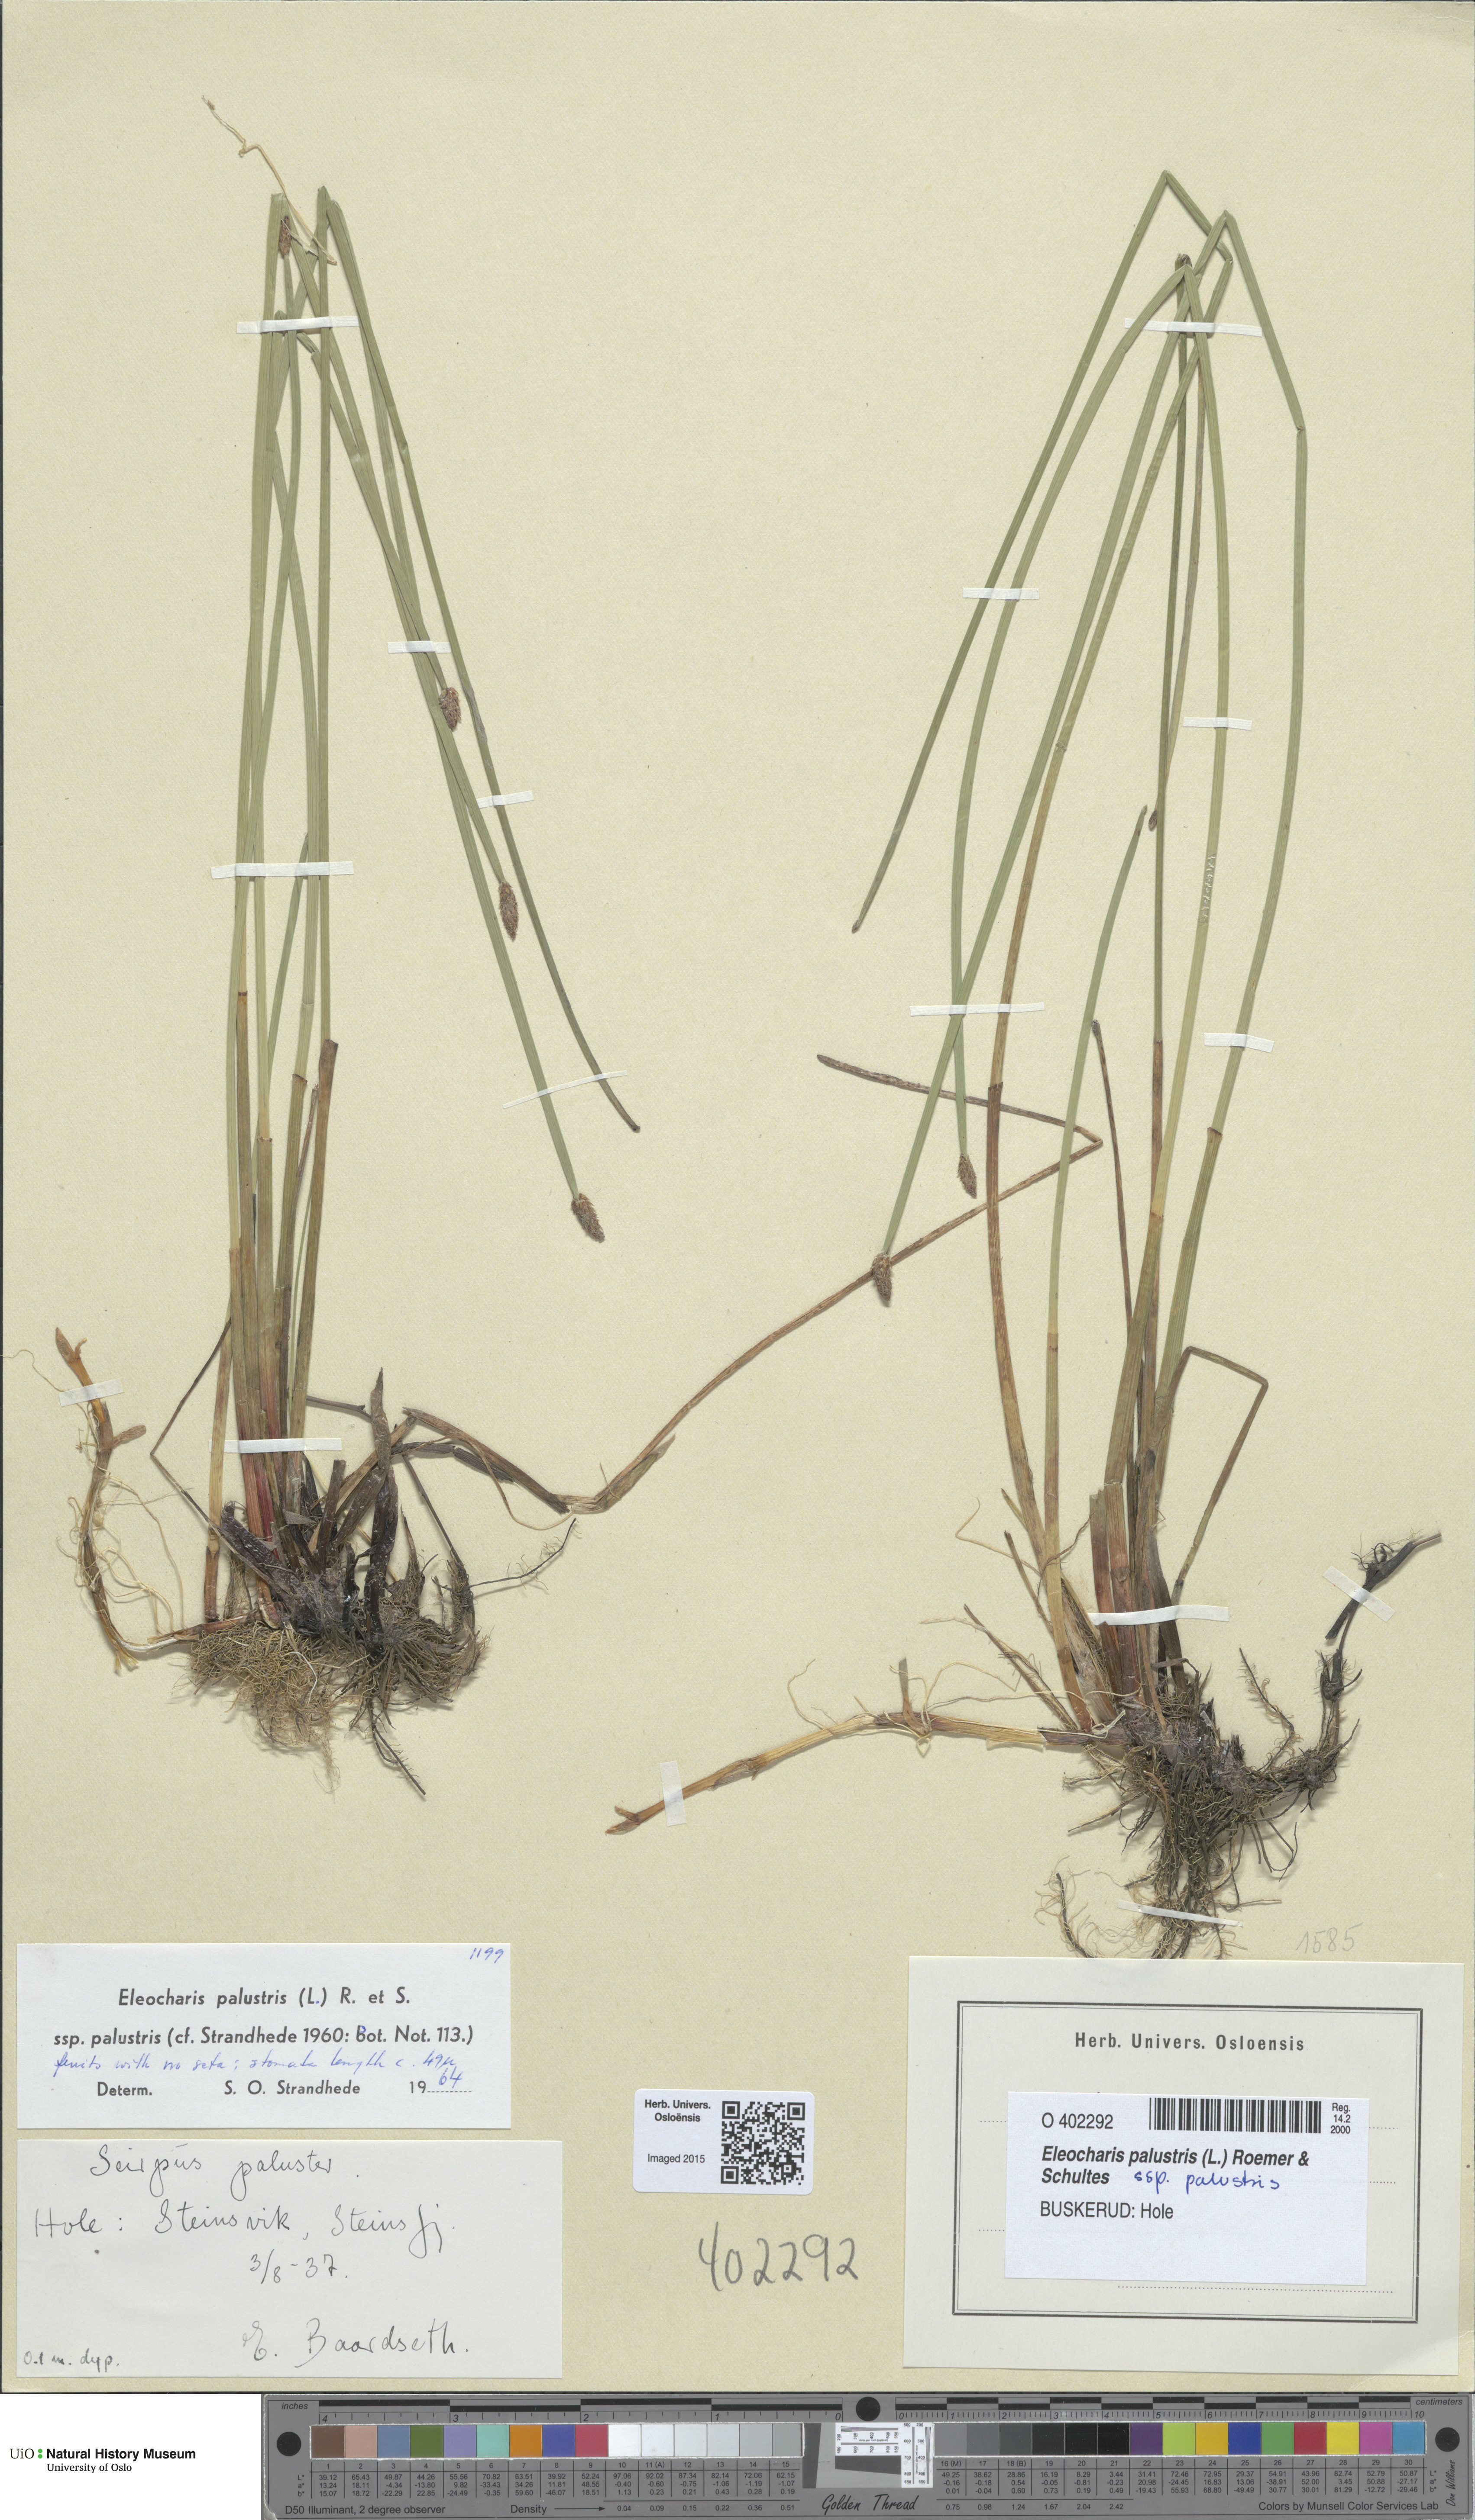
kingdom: Plantae
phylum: Tracheophyta
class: Liliopsida
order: Poales
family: Cyperaceae
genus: Eleocharis
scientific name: Eleocharis palustris
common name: Common spike-rush
